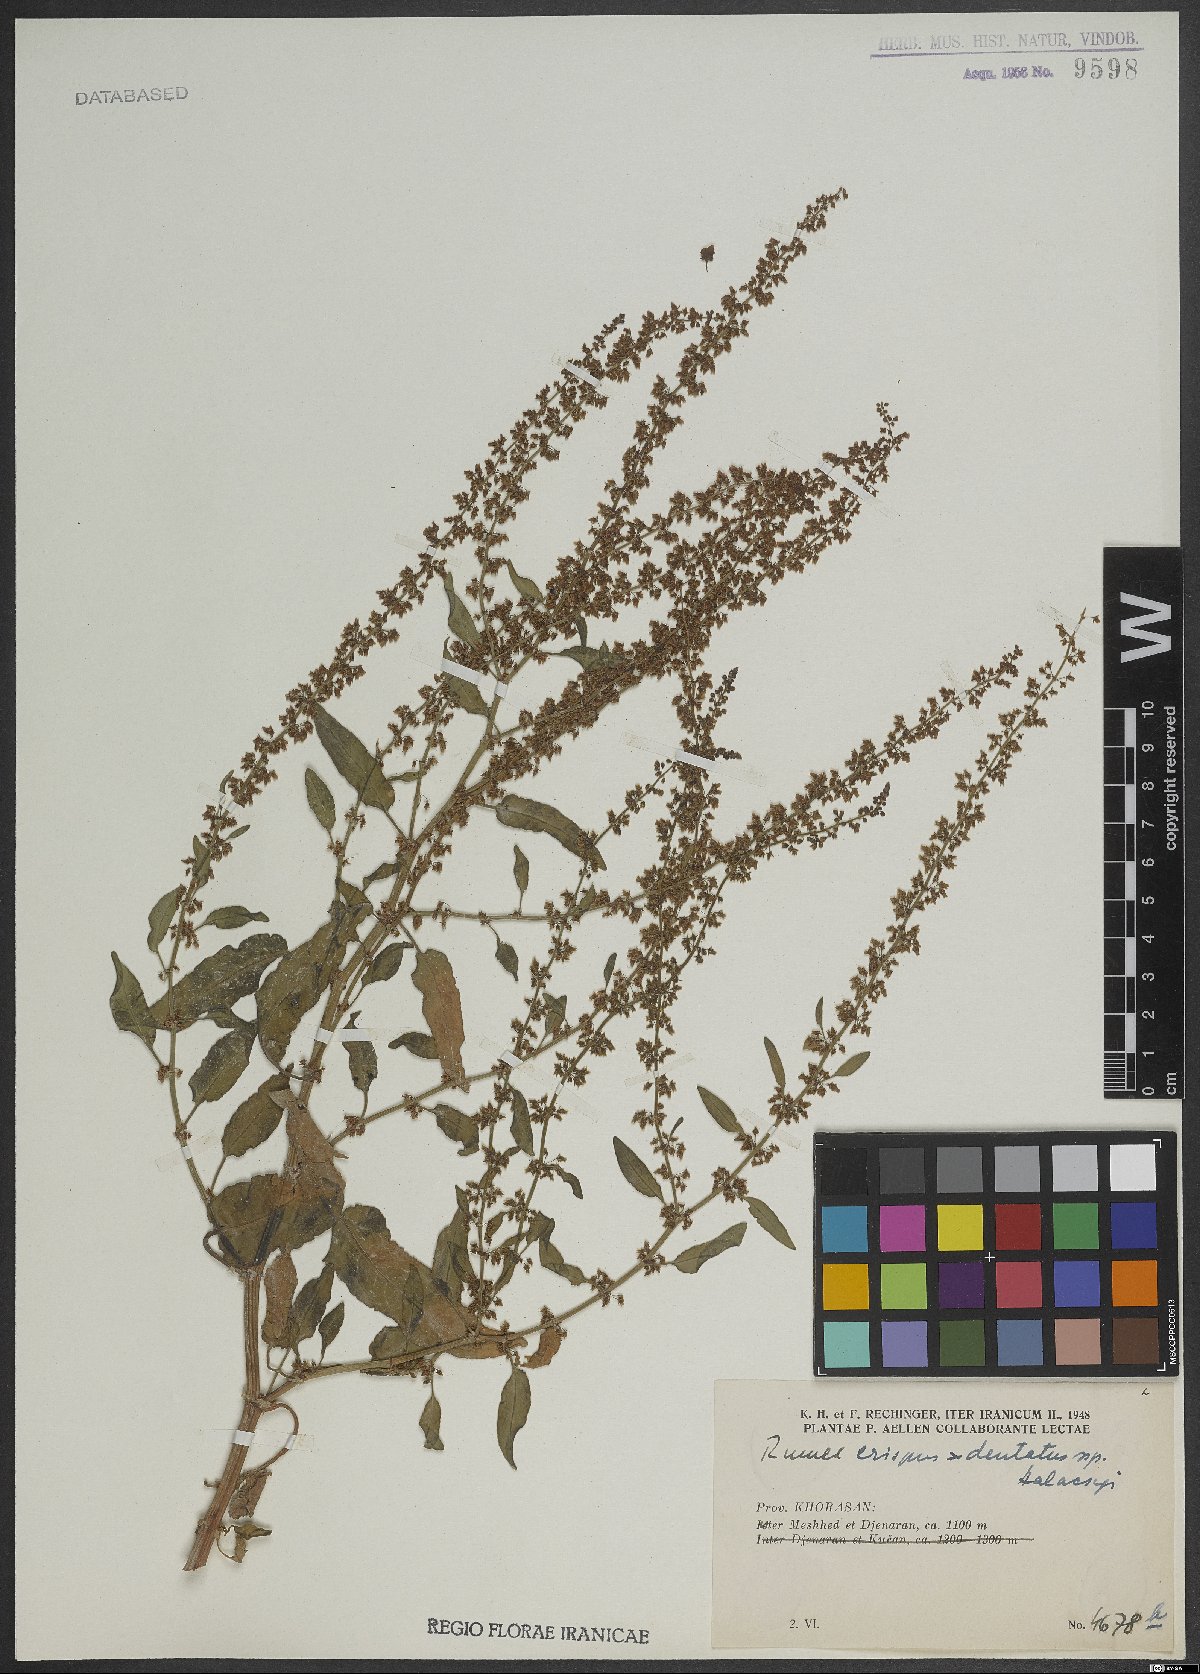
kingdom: Plantae
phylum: Tracheophyta
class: Magnoliopsida
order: Caryophyllales
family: Polygonaceae
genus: Rumex
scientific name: Rumex accessorius
